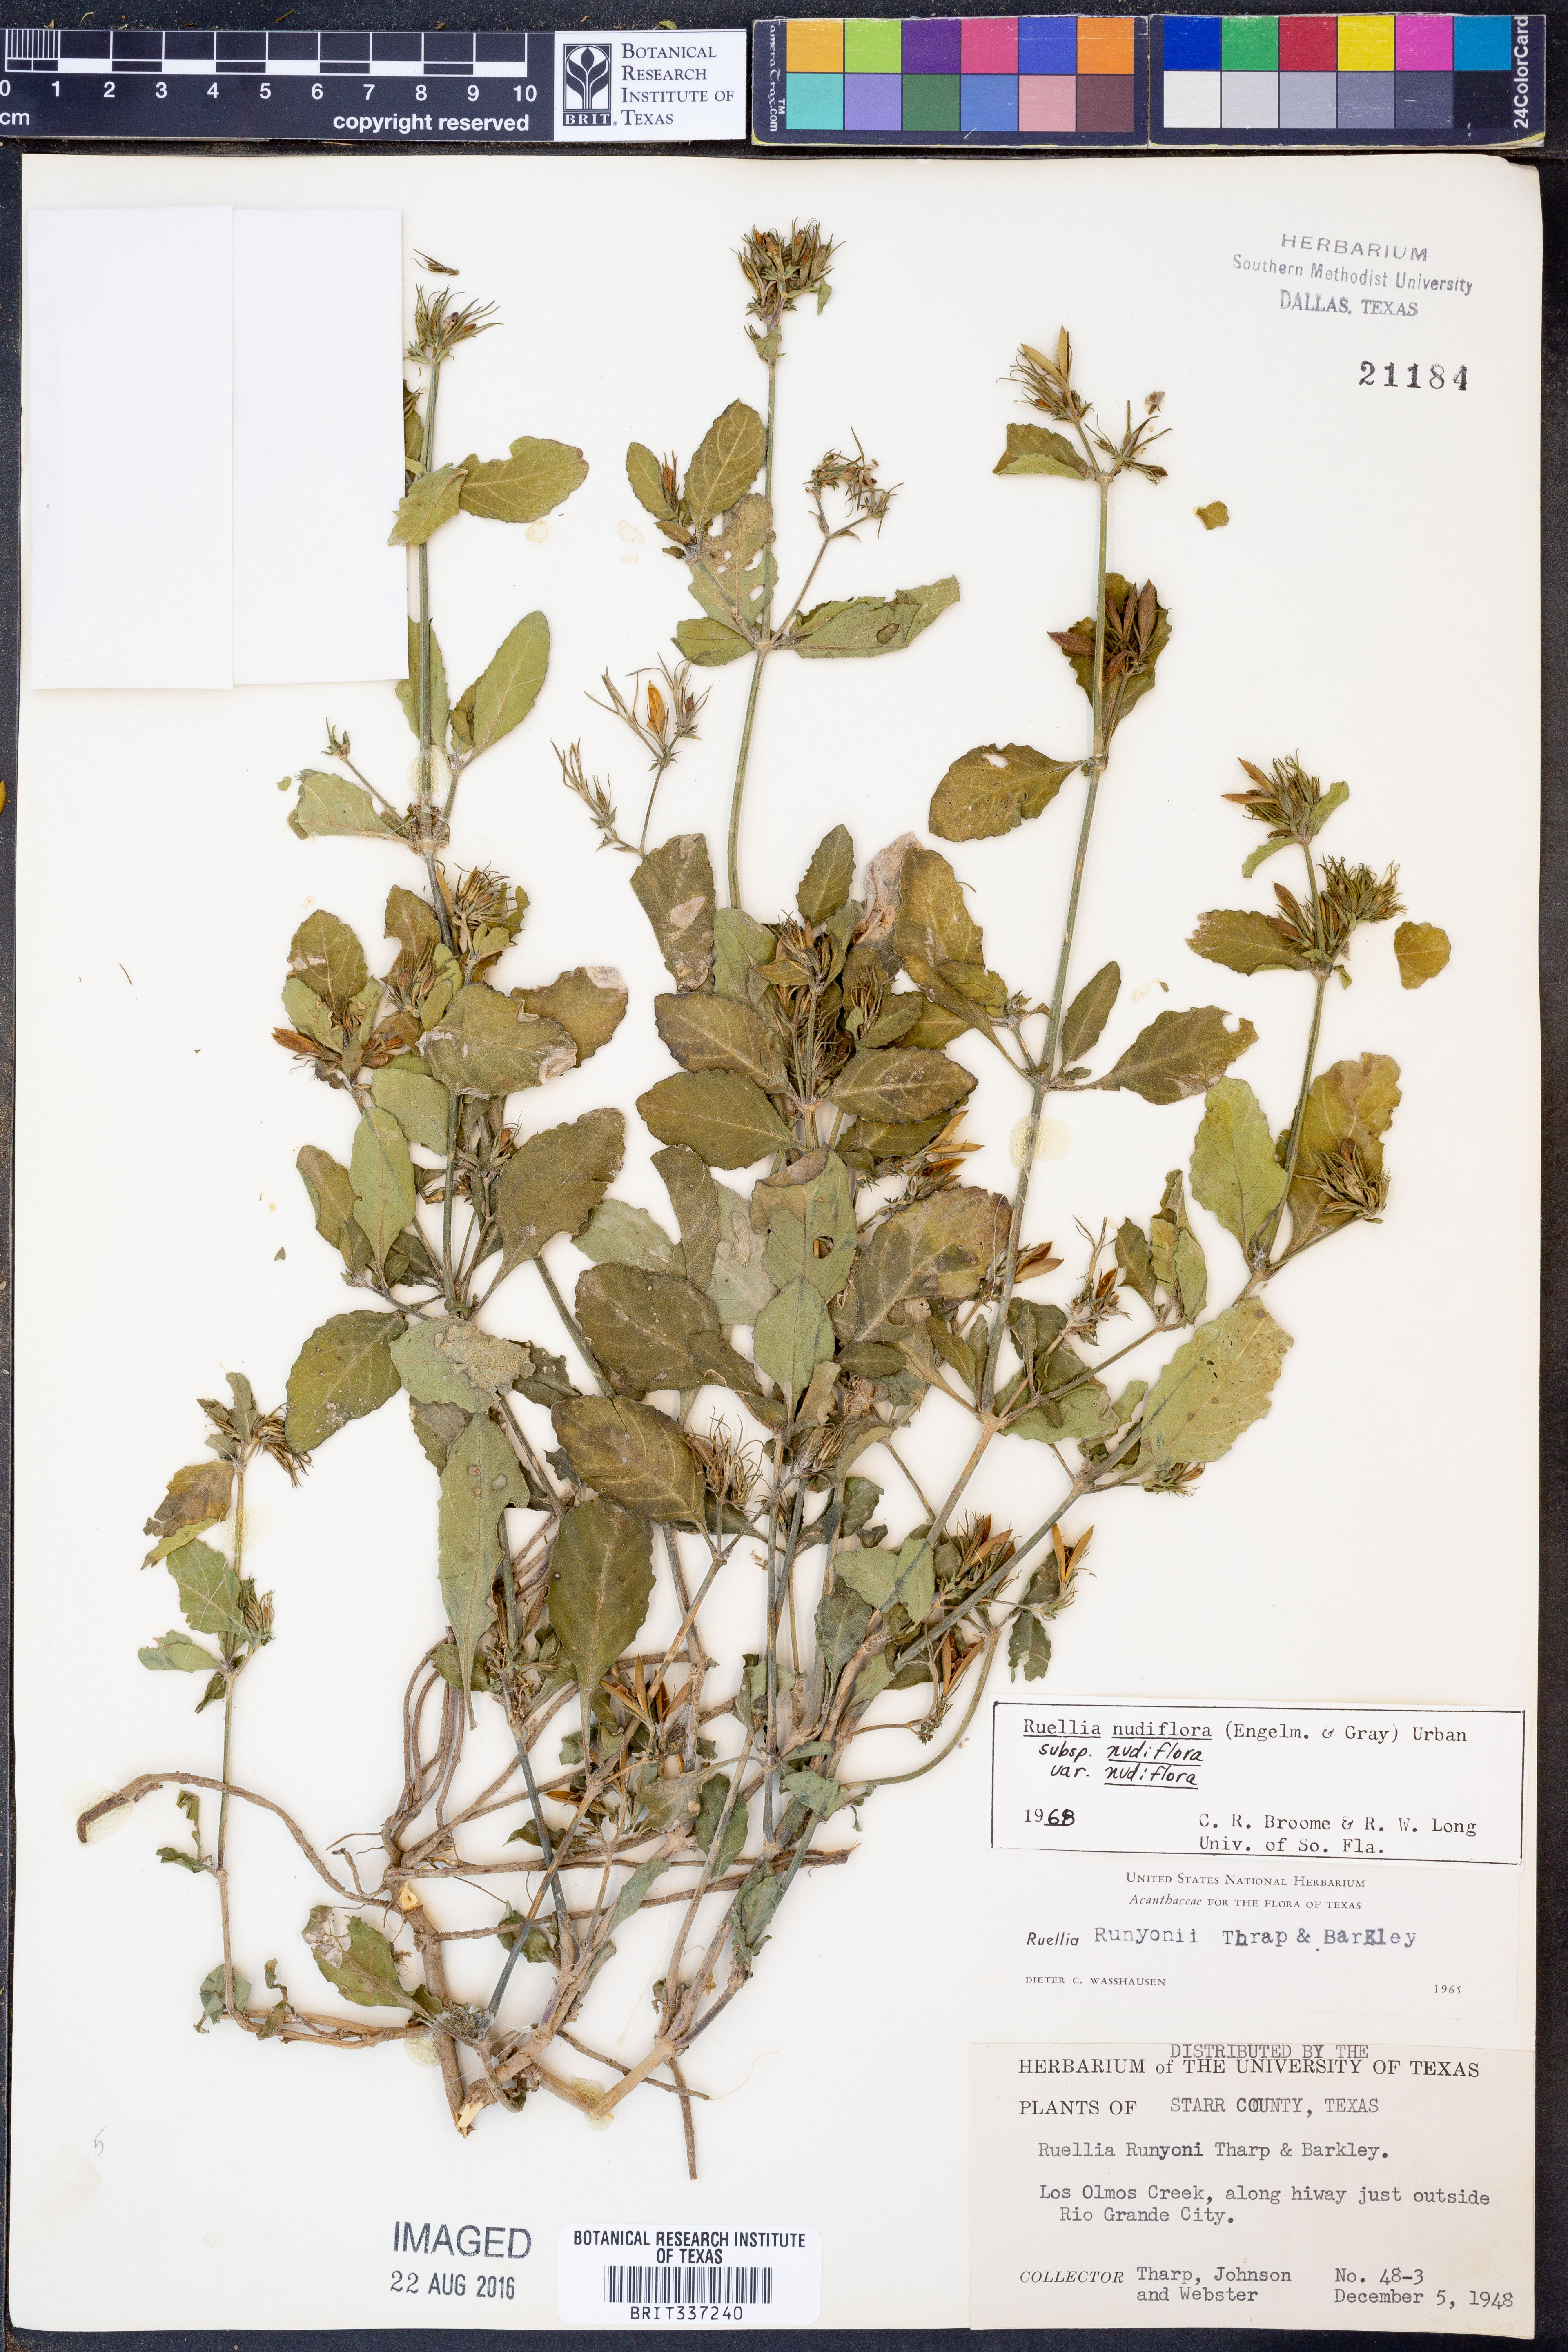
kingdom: Plantae
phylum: Tracheophyta
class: Magnoliopsida
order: Lamiales
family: Acanthaceae
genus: Ruellia
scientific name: Ruellia ciliatiflora
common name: Hairyflower wild petunia
